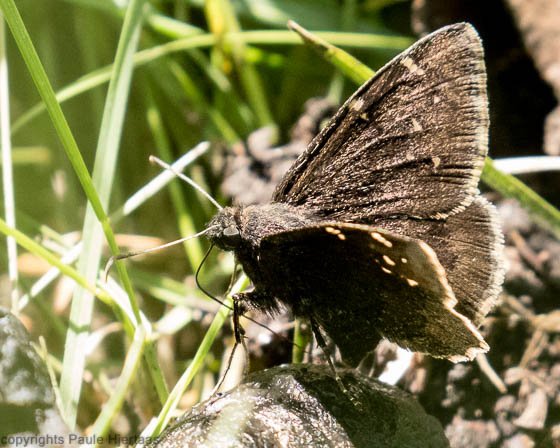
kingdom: Animalia
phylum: Arthropoda
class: Insecta
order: Lepidoptera
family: Hesperiidae
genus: Autochton
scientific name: Autochton
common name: Northern Cloudywing
